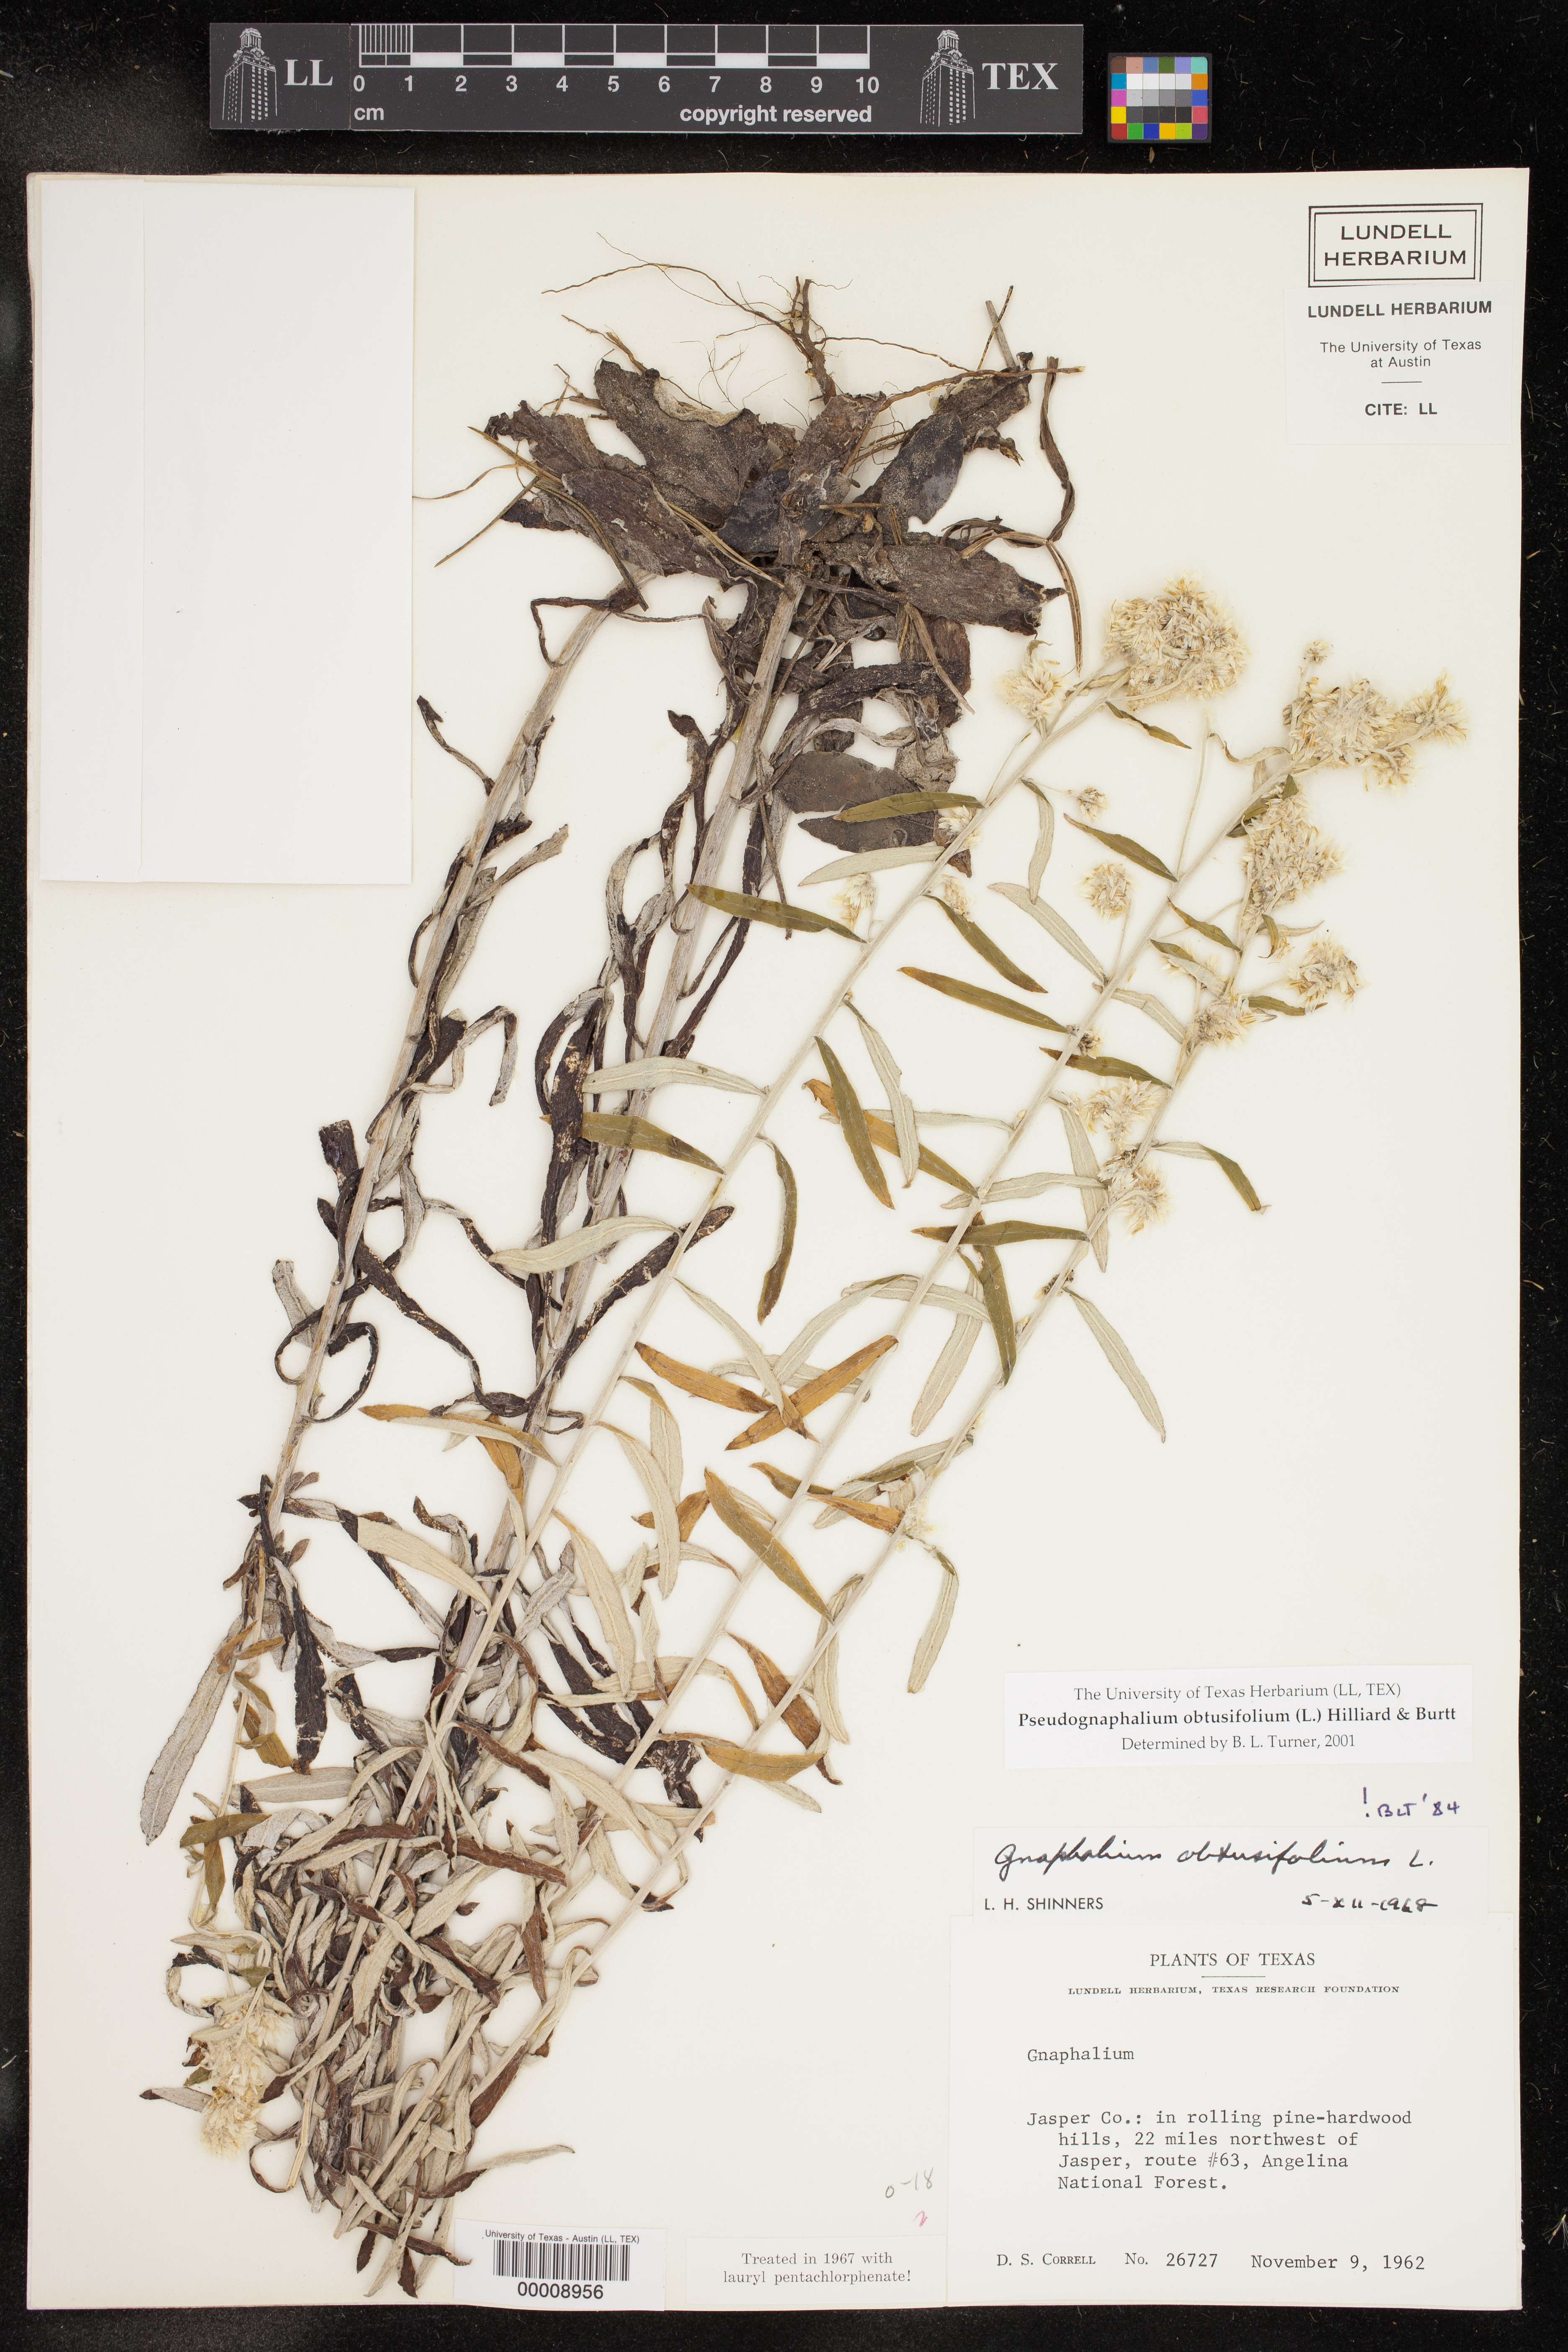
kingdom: Plantae
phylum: Tracheophyta
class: Magnoliopsida
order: Asterales
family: Asteraceae
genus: Pseudognaphalium
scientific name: Pseudognaphalium obtusifolium
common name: Eastern rabbit-tobacco
